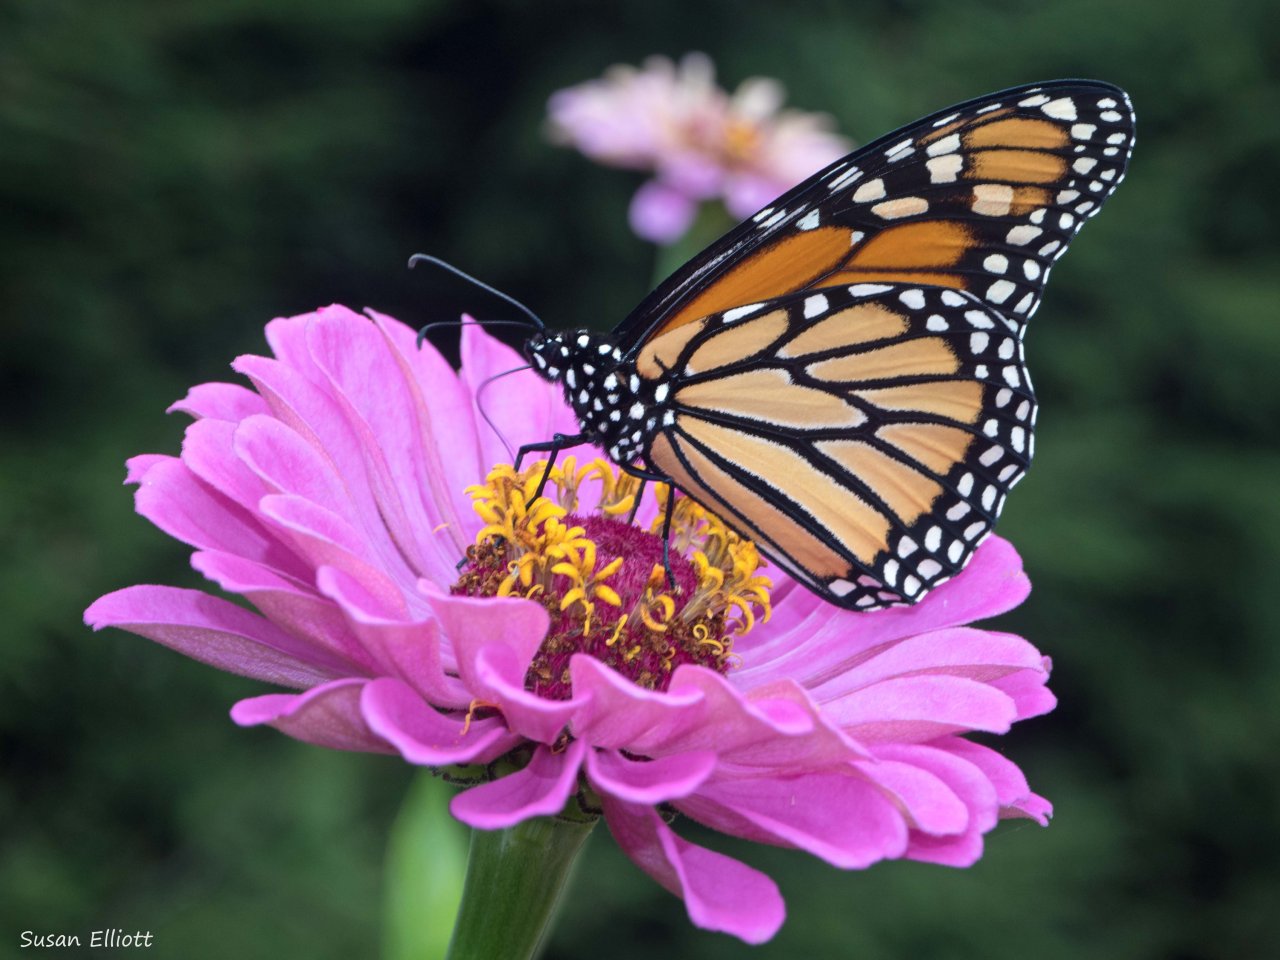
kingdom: Animalia
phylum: Arthropoda
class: Insecta
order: Lepidoptera
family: Nymphalidae
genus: Danaus
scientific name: Danaus plexippus
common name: Monarch
